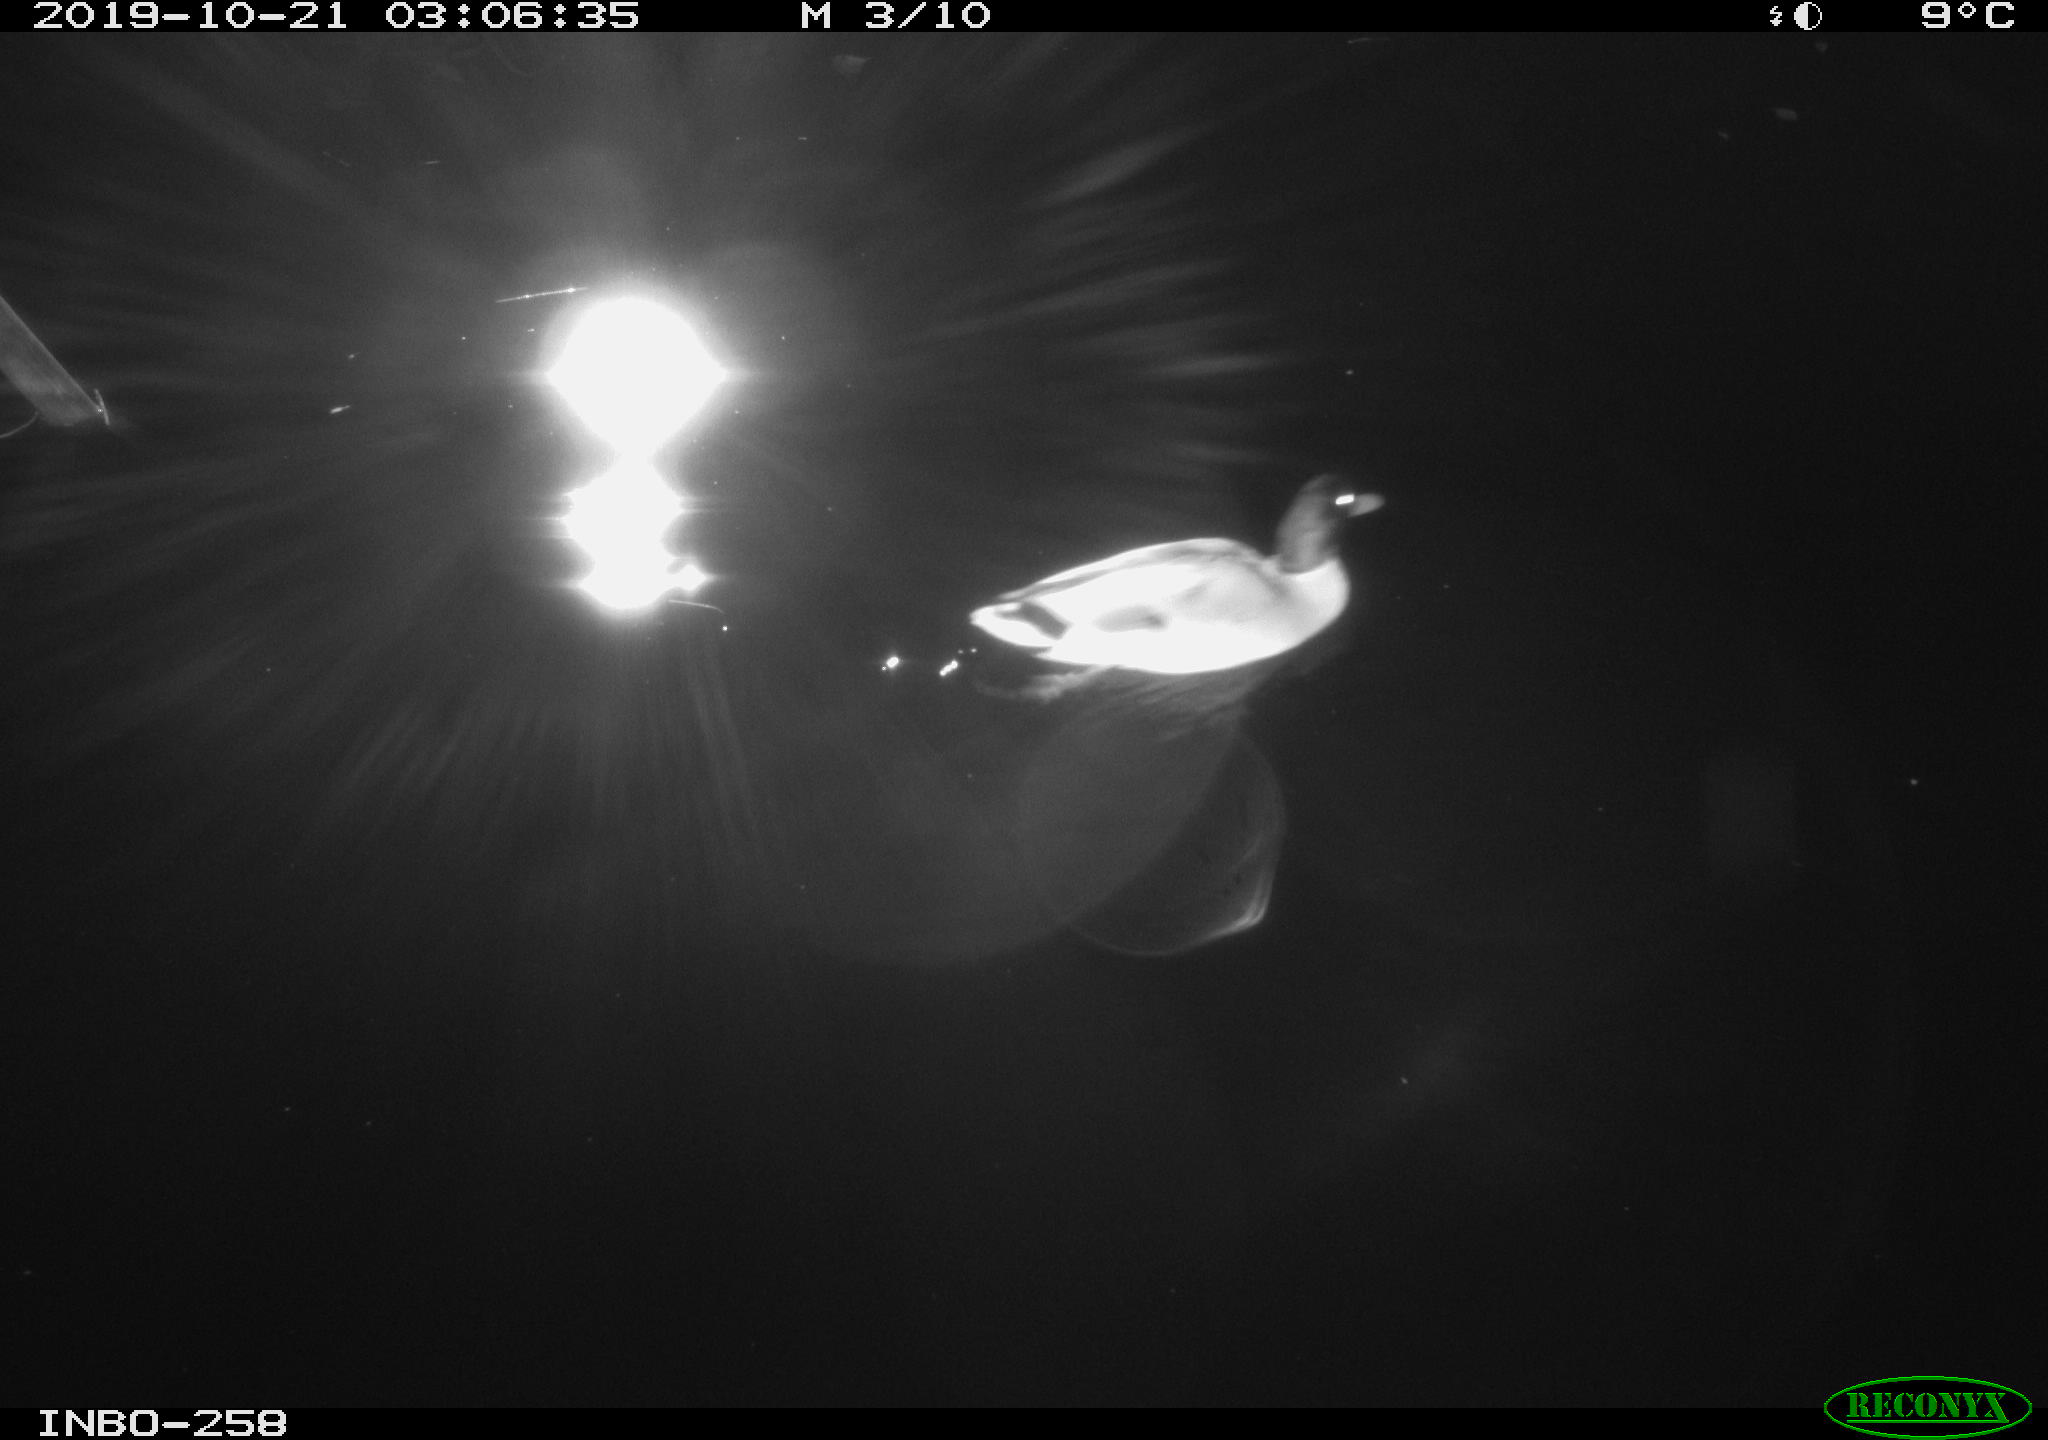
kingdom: Animalia
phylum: Chordata
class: Aves
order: Anseriformes
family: Anatidae
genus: Anas
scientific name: Anas platyrhynchos
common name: Mallard
